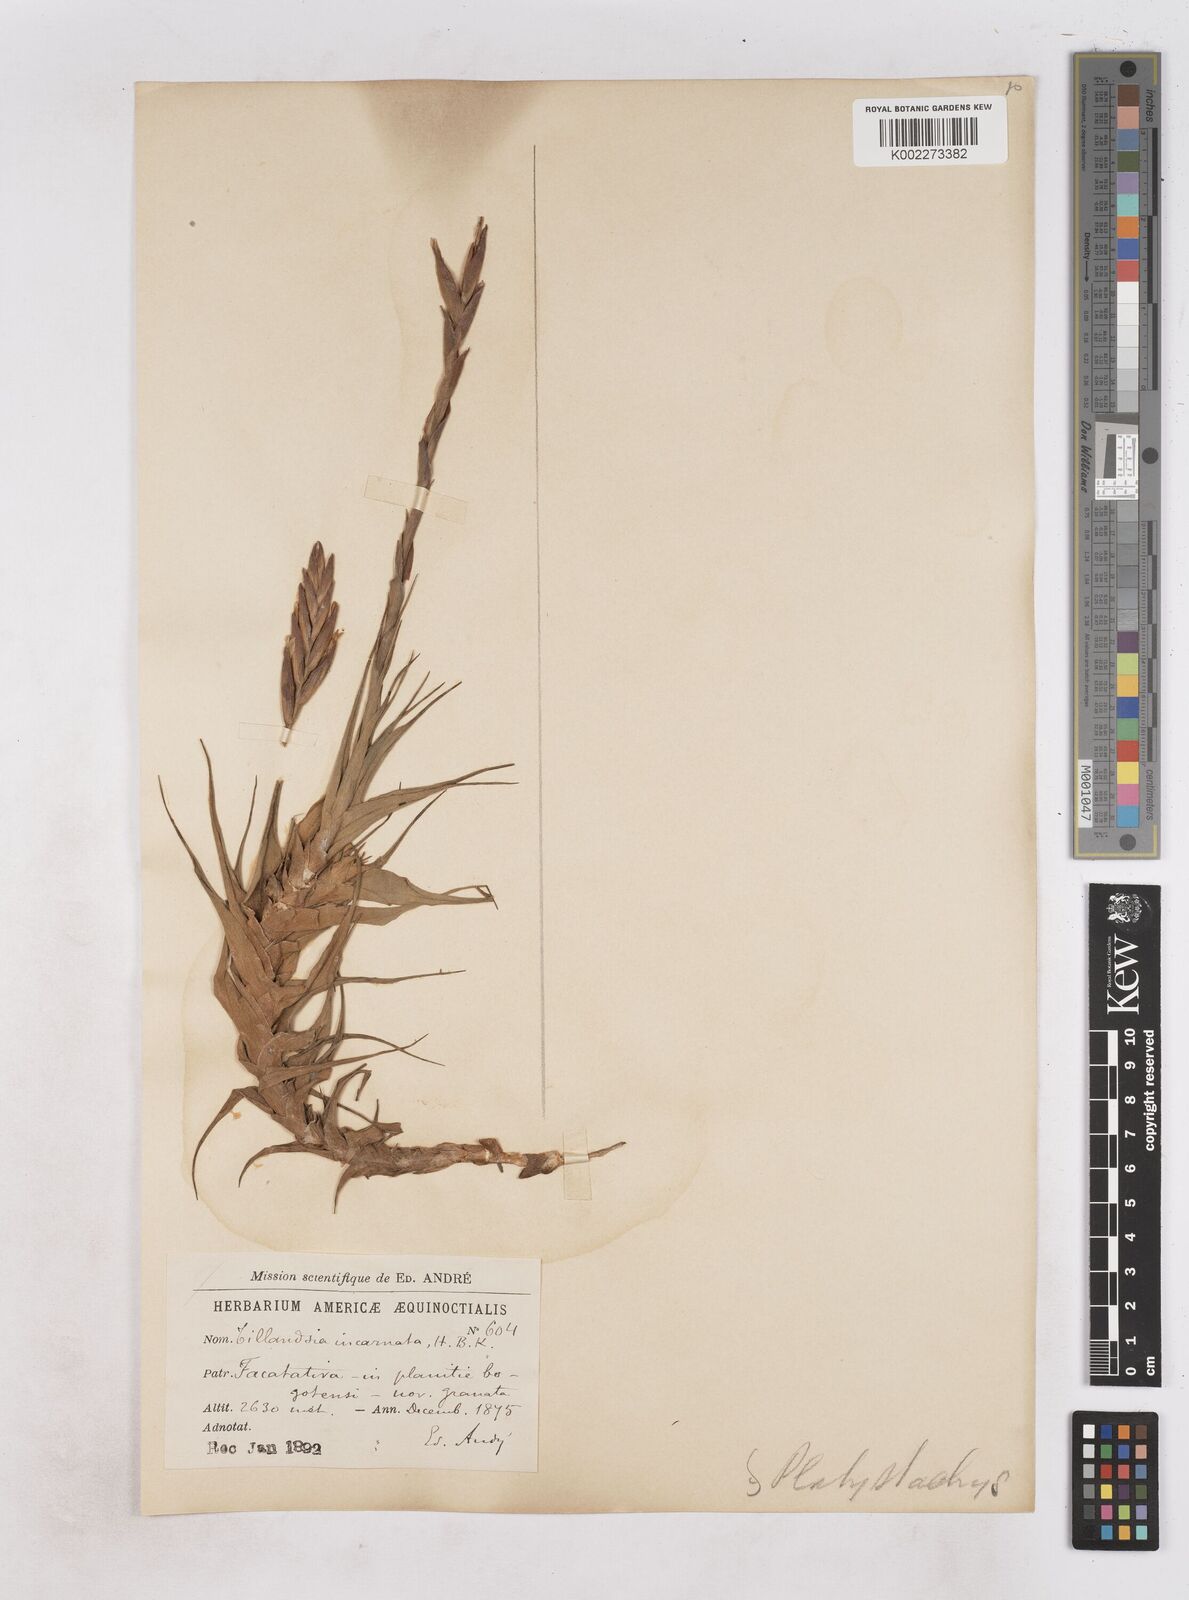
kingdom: Plantae
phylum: Tracheophyta
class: Liliopsida
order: Poales
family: Bromeliaceae
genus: Tillandsia
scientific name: Tillandsia incarnata
